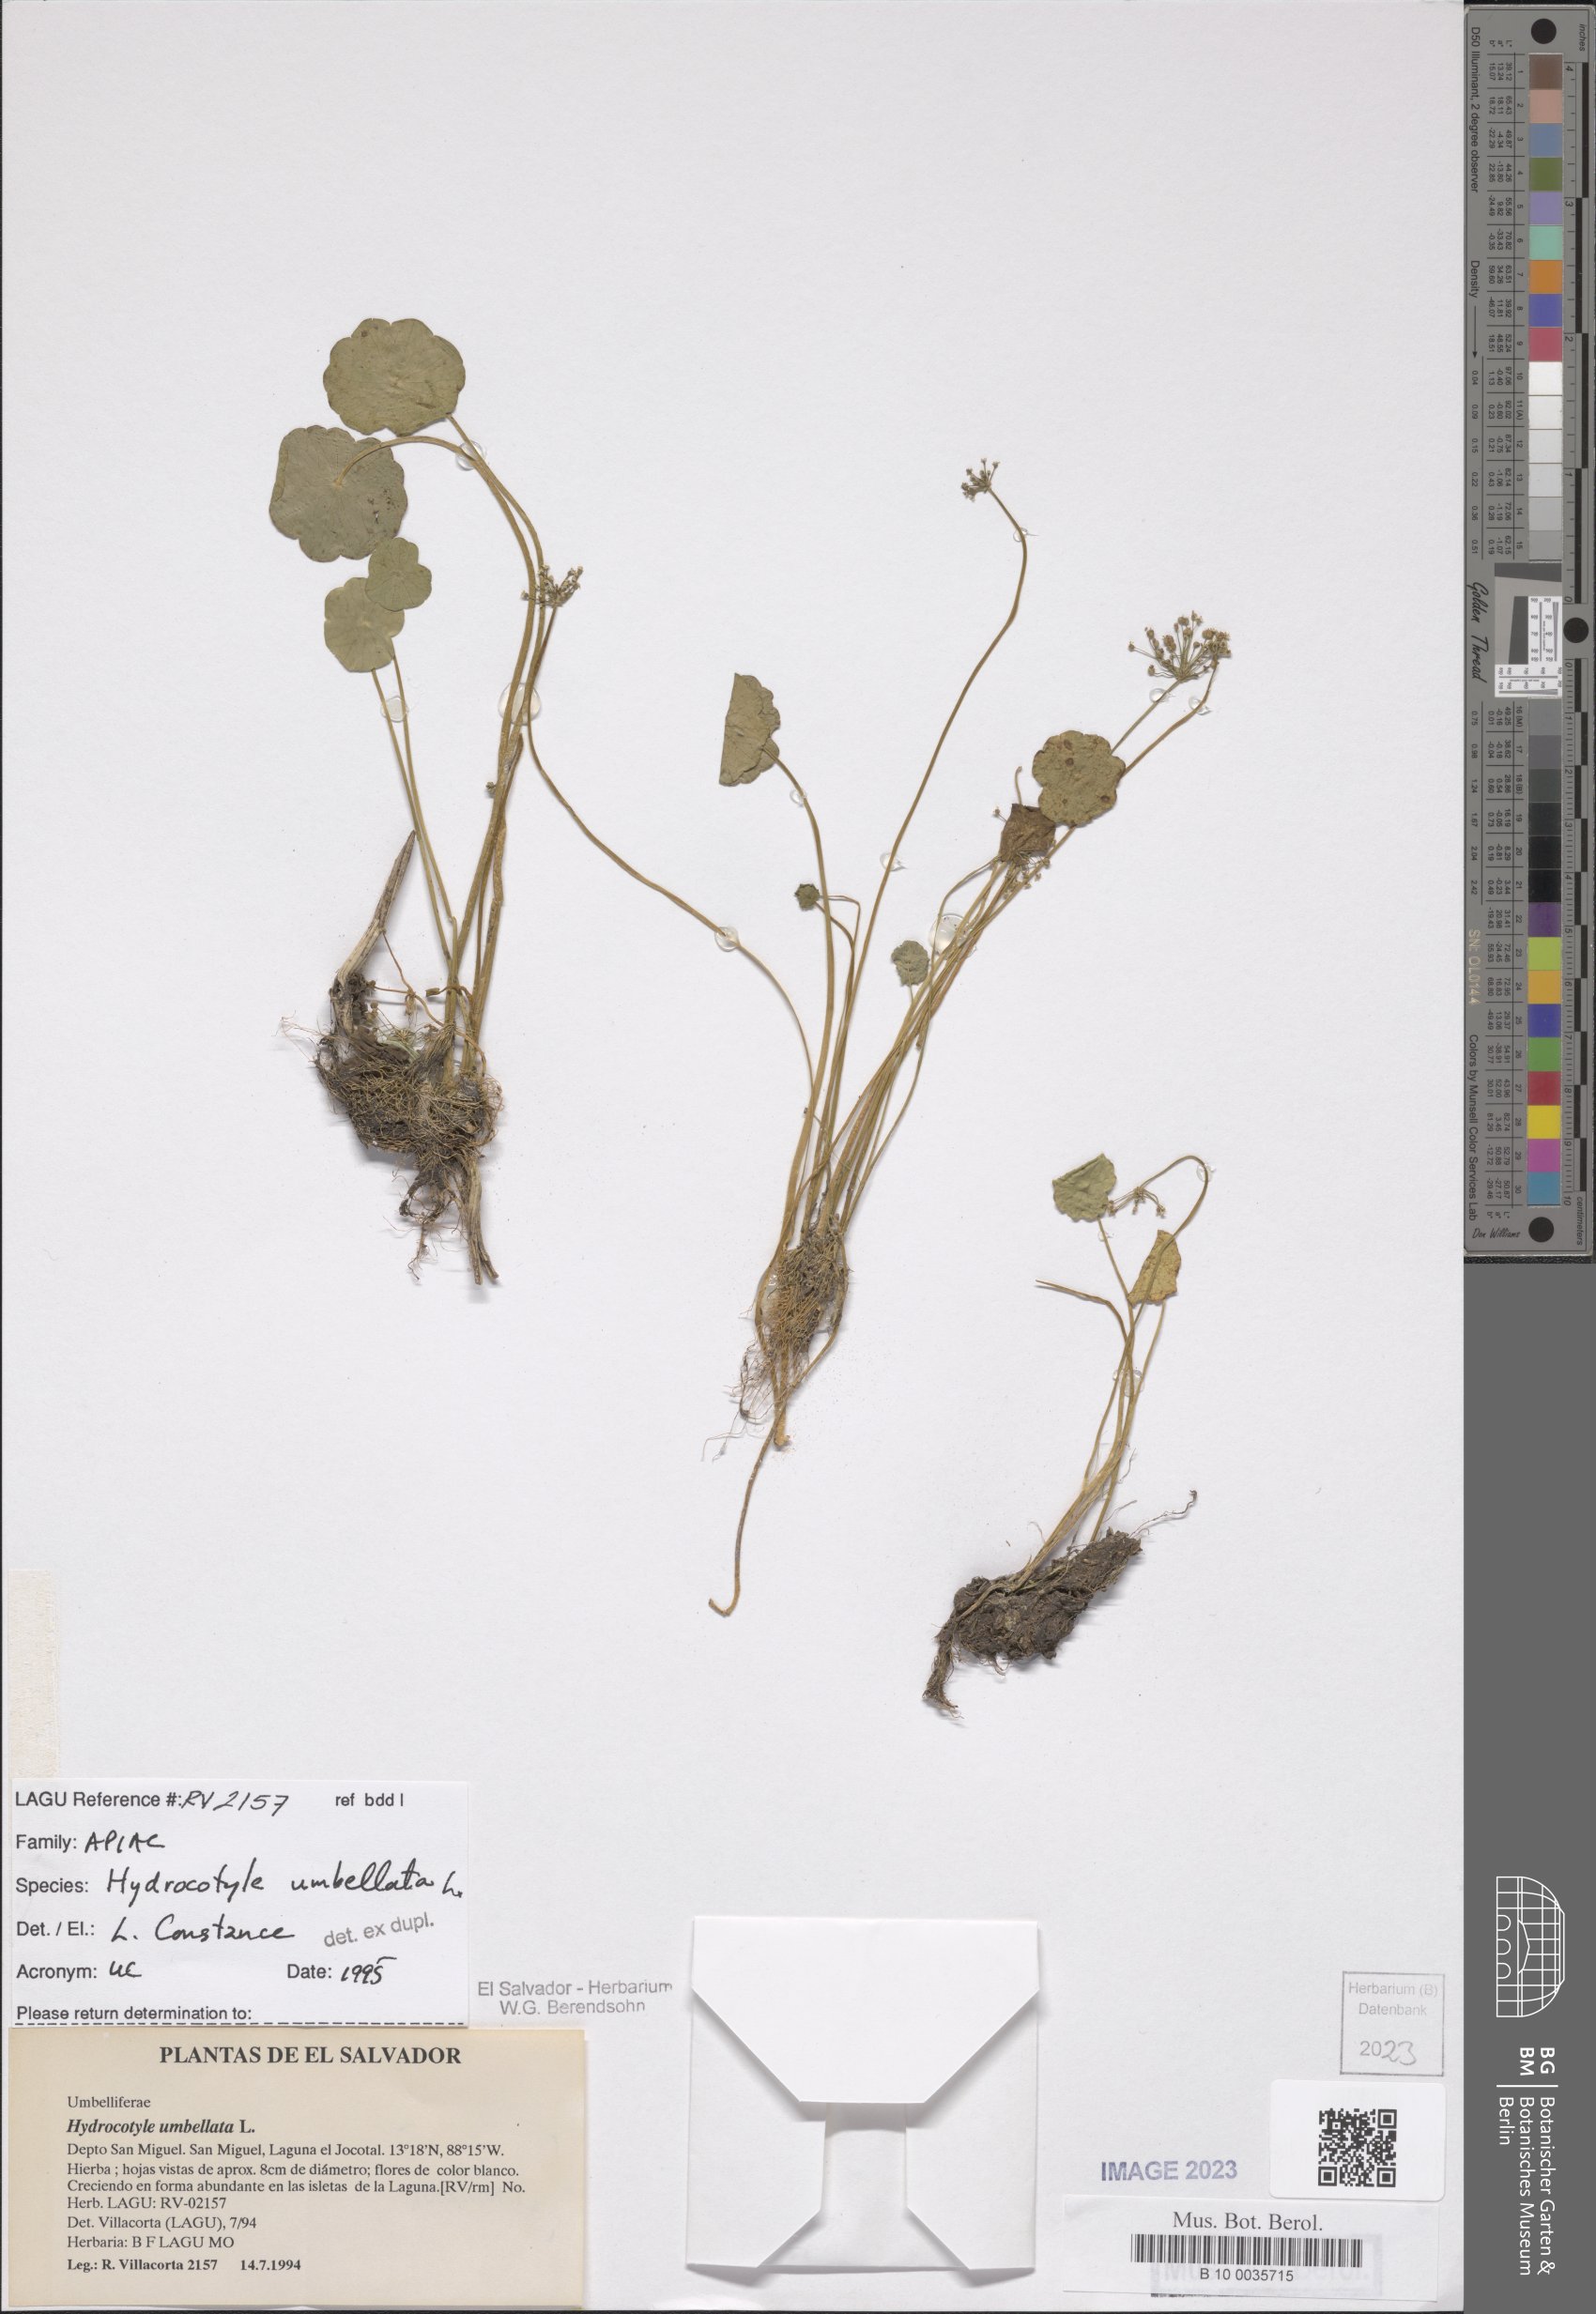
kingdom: Plantae
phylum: Tracheophyta
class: Magnoliopsida
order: Apiales
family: Araliaceae
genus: Hydrocotyle
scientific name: Hydrocotyle umbellata
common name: Water pennywort
